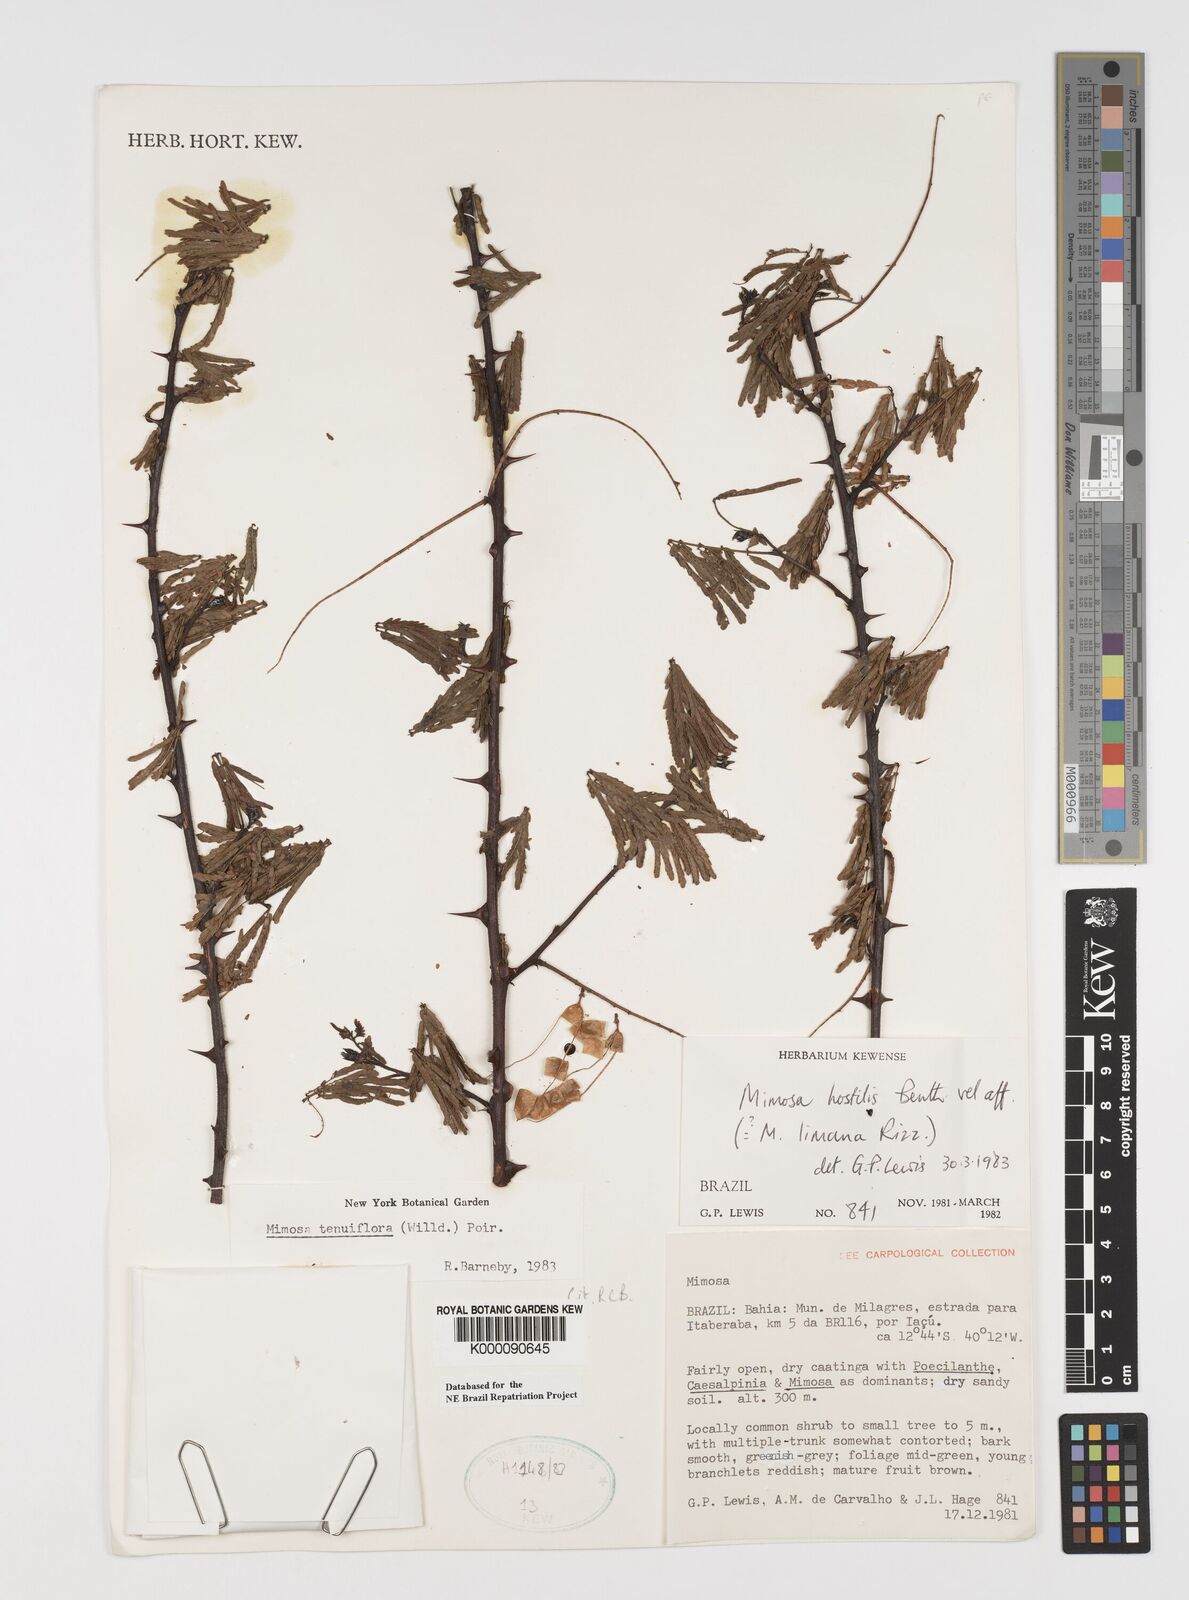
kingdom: Plantae
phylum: Tracheophyta
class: Magnoliopsida
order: Fabales
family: Fabaceae
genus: Mimosa
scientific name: Mimosa tenuiflora
